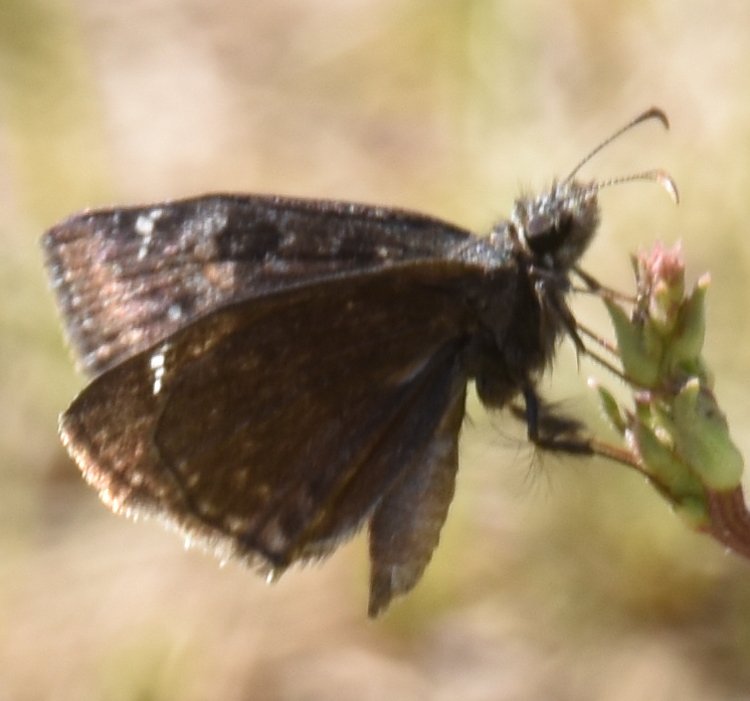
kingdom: Animalia
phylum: Arthropoda
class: Insecta
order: Lepidoptera
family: Hesperiidae
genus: Erynnis
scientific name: Erynnis
